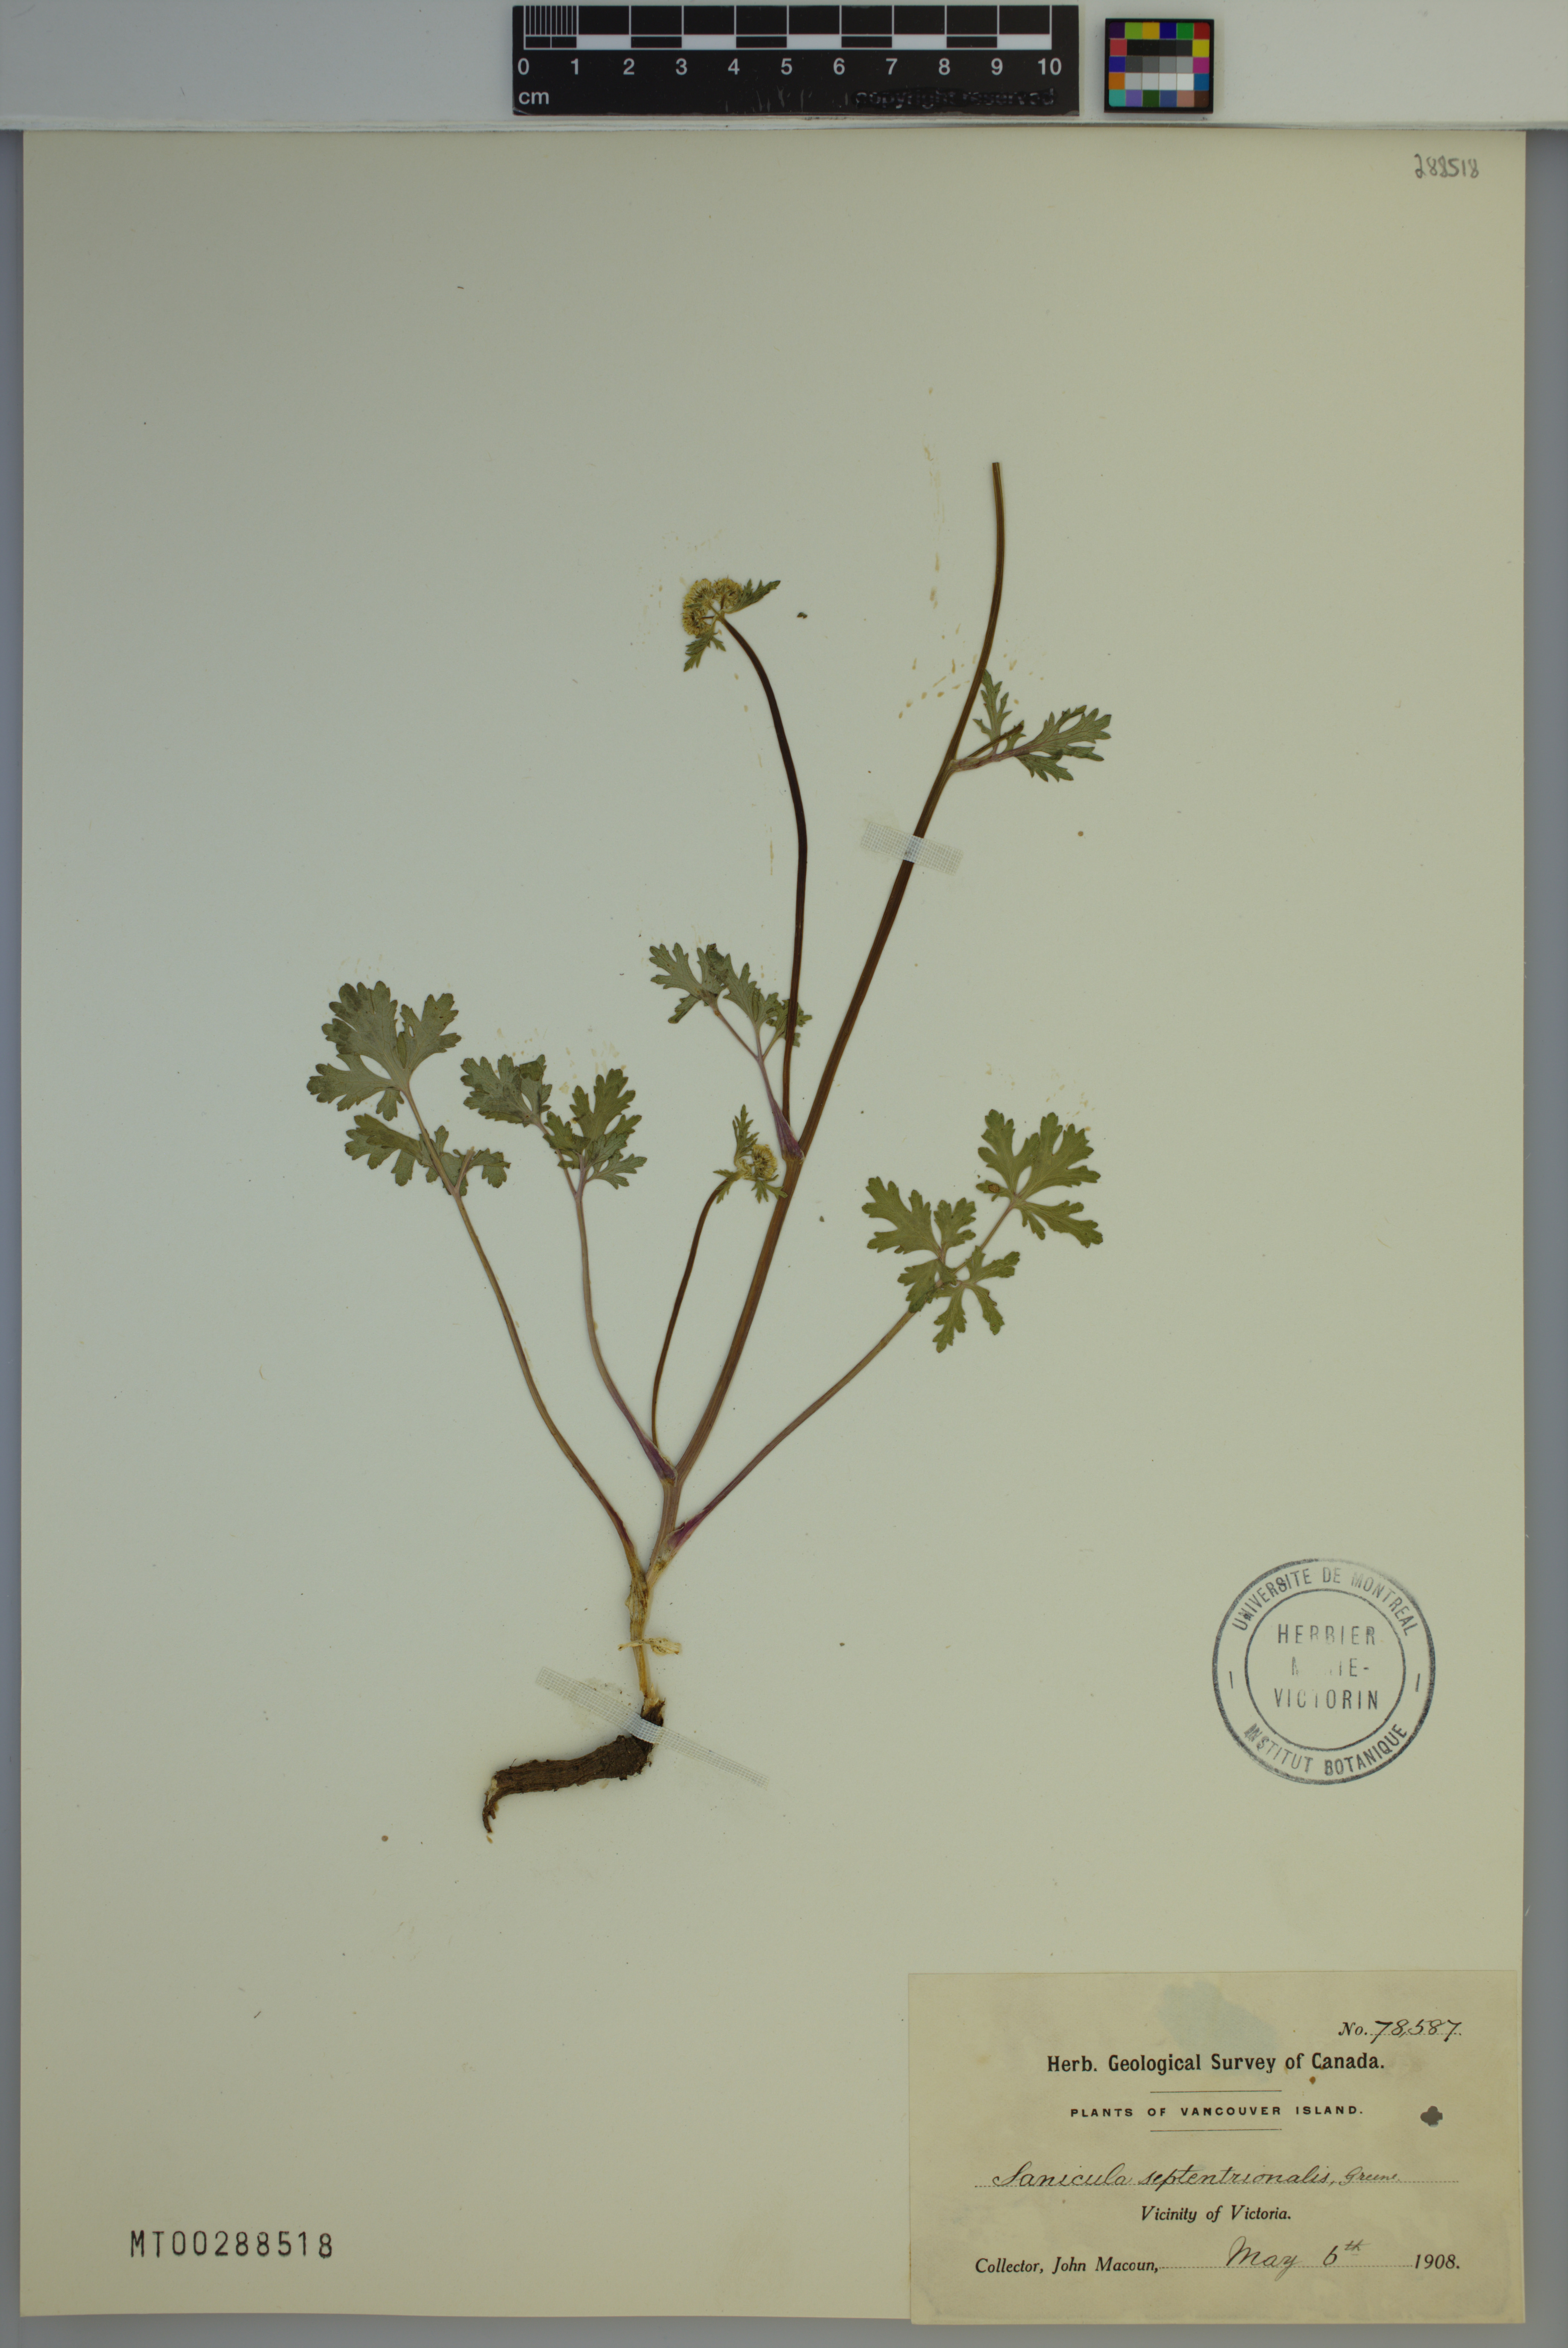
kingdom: Plantae
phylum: Tracheophyta
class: Magnoliopsida
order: Apiales
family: Apiaceae
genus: Sanicula
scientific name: Sanicula graveolens
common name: Sierra sanicle
